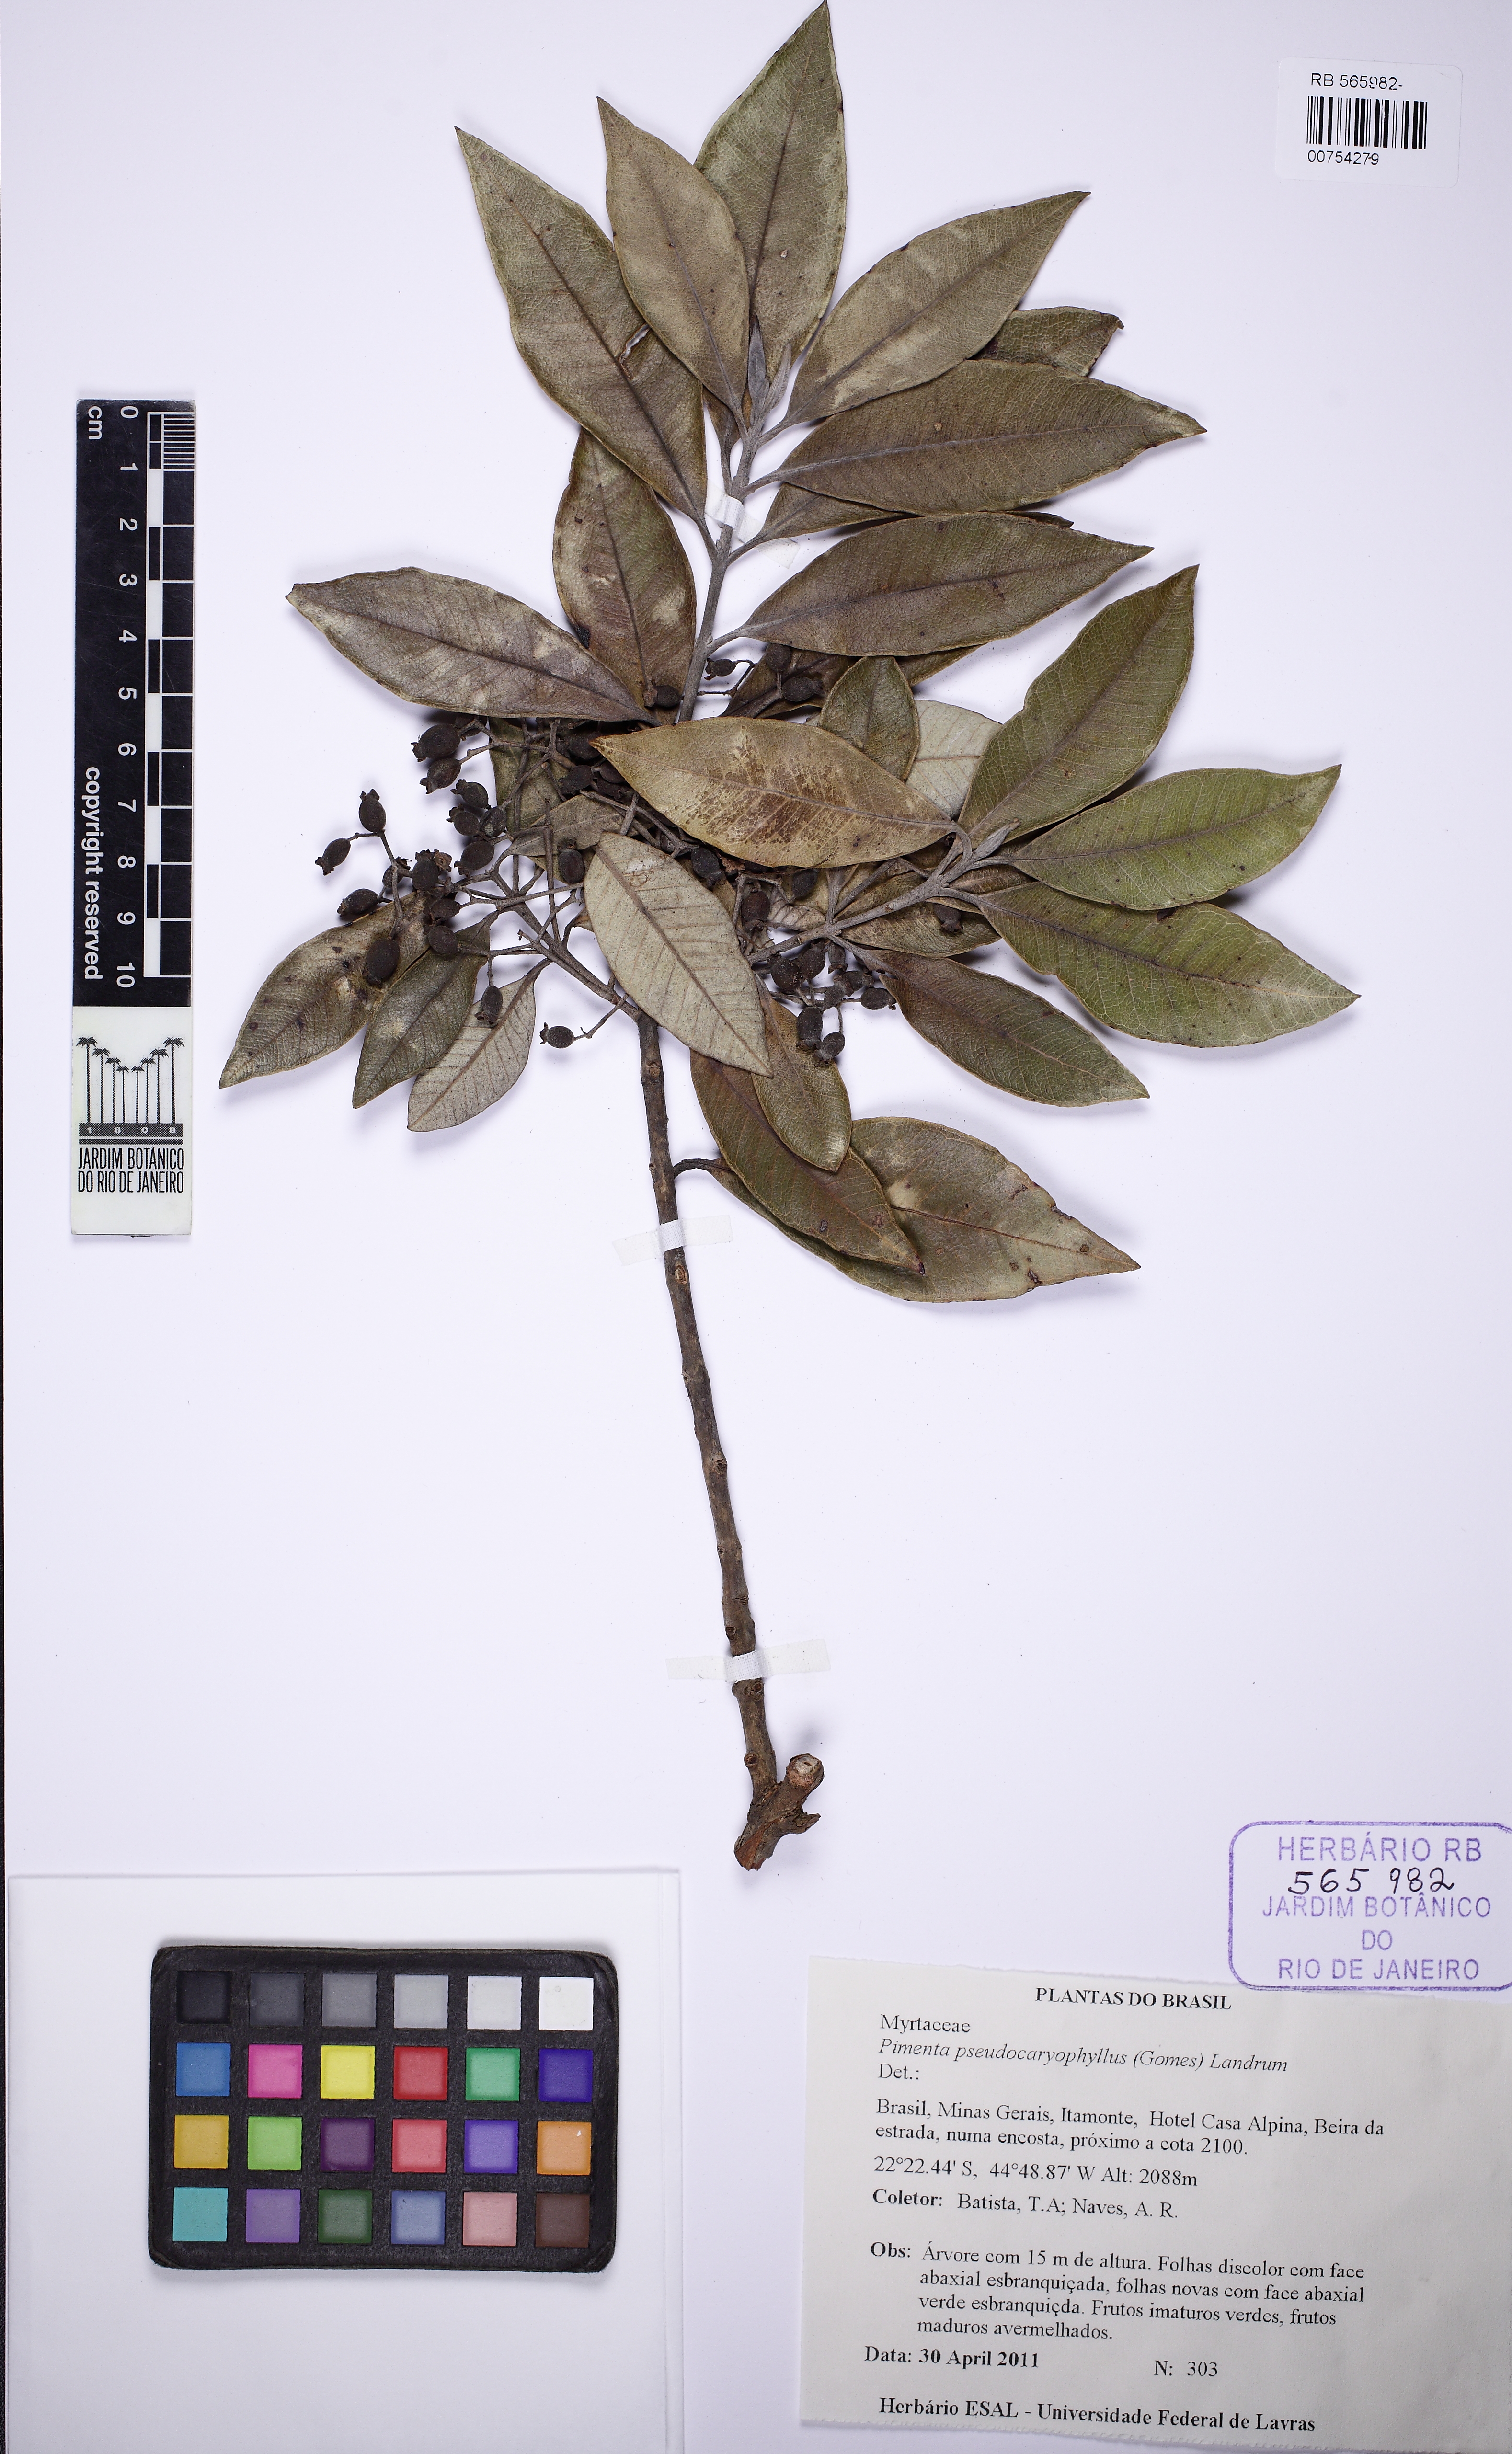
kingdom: Plantae
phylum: Tracheophyta
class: Magnoliopsida
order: Myrtales
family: Myrtaceae
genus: Pimenta
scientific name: Pimenta pseudocaryophyllus
